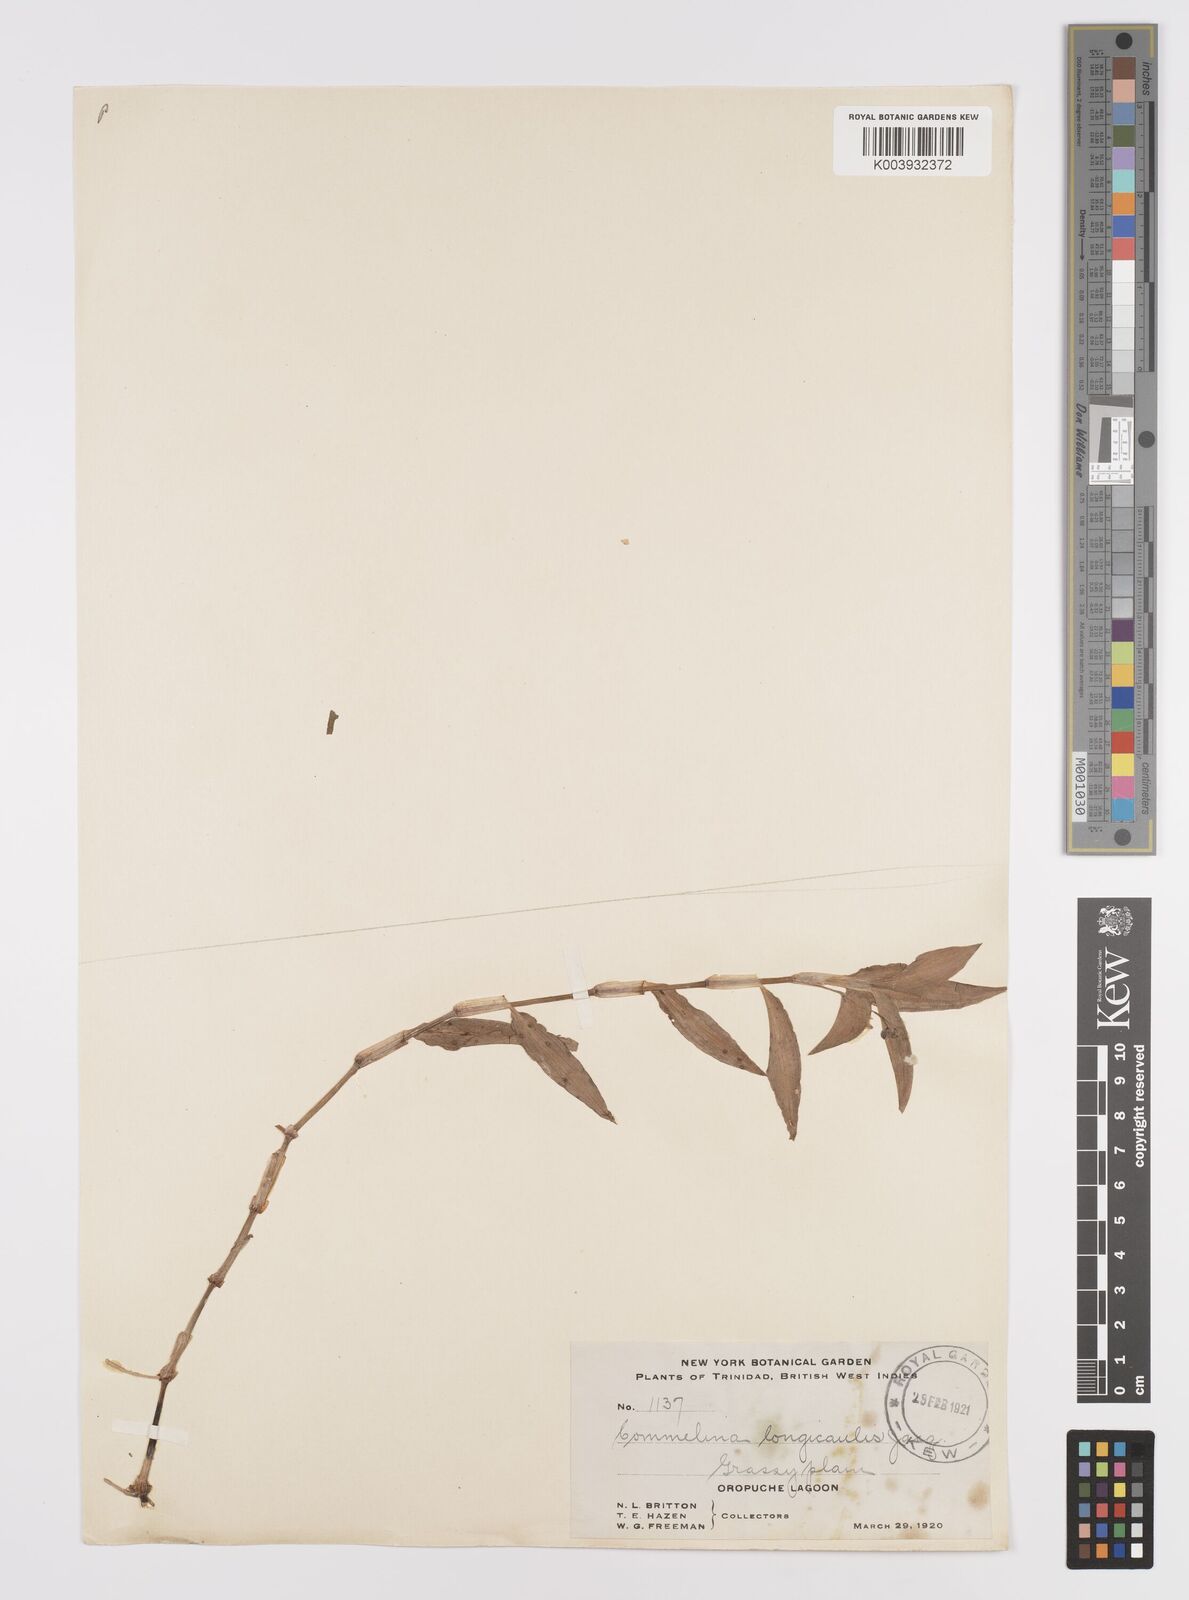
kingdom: Plantae
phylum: Tracheophyta
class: Liliopsida
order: Commelinales
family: Commelinaceae
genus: Commelina
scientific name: Commelina
